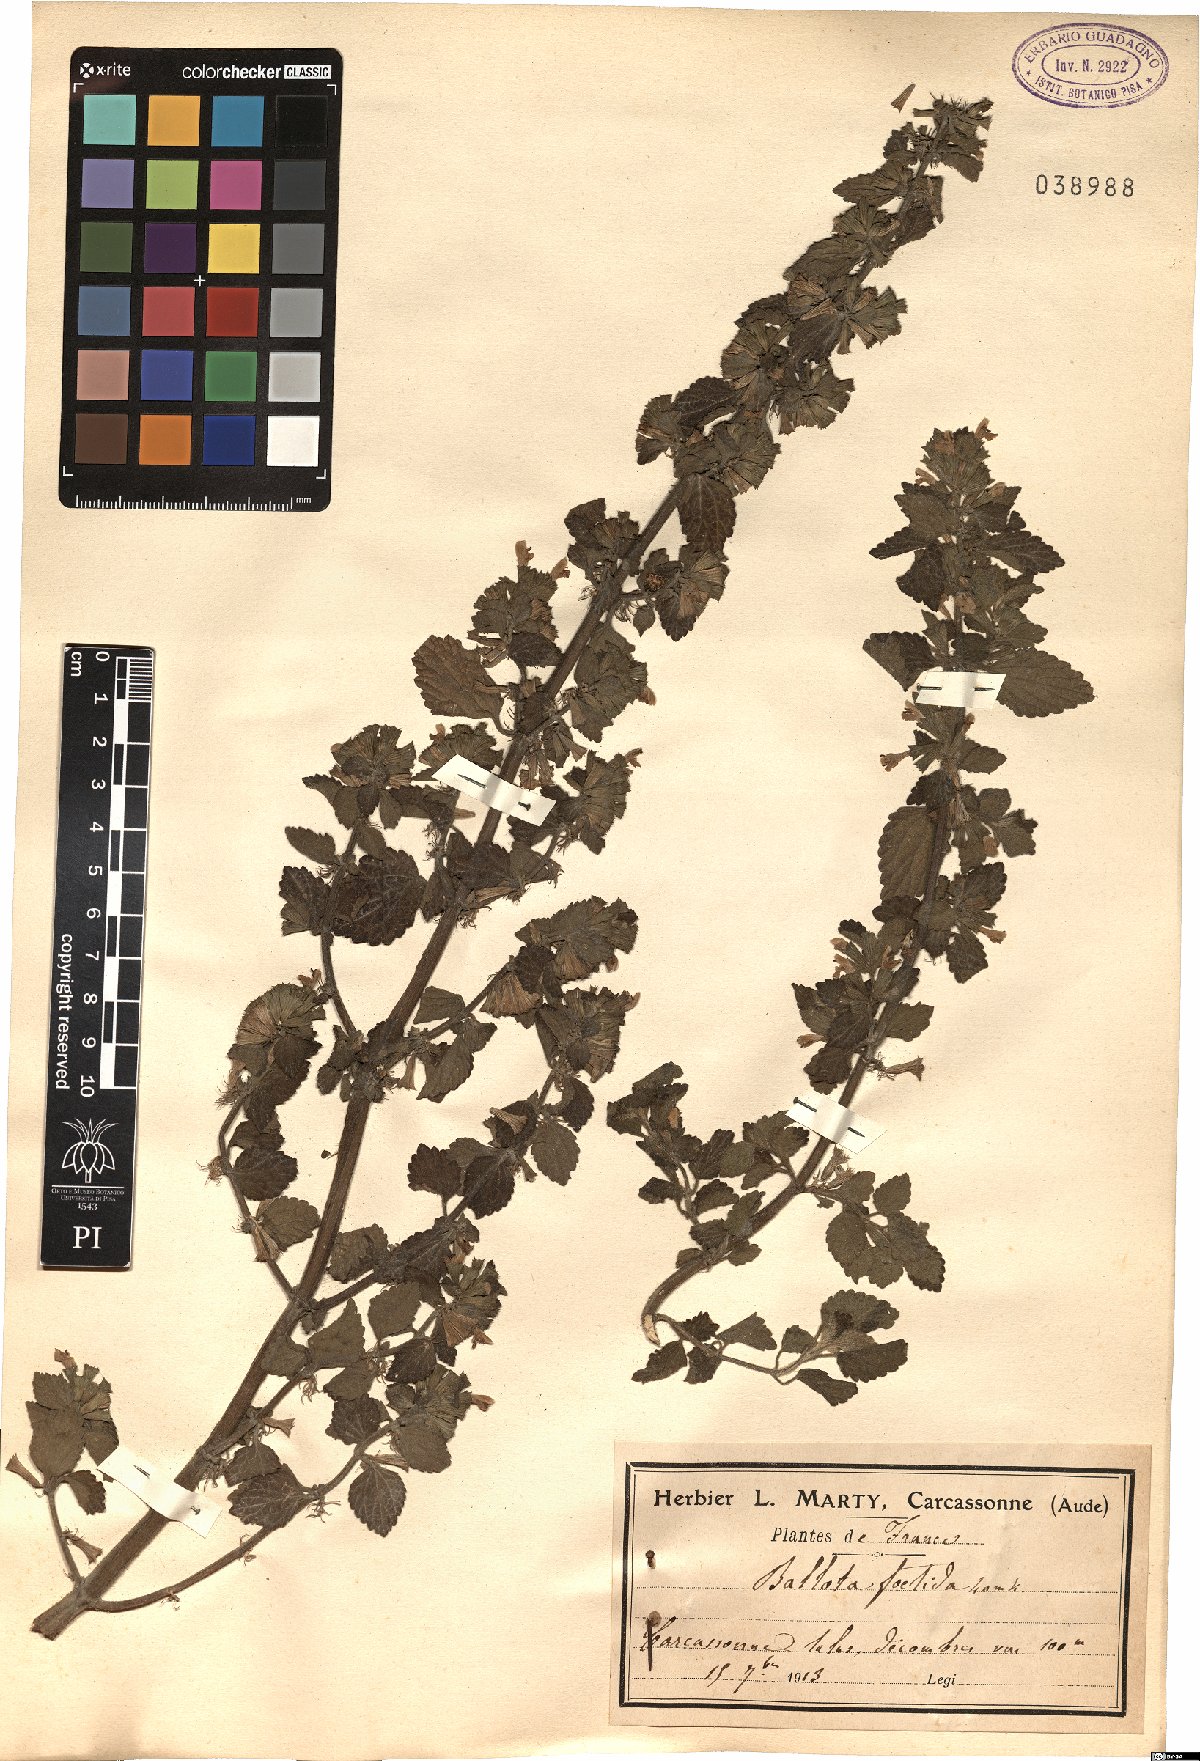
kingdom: Plantae
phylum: Tracheophyta
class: Magnoliopsida
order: Lamiales
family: Lamiaceae
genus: Ballota
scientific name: Ballota nigra
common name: Black horehound
